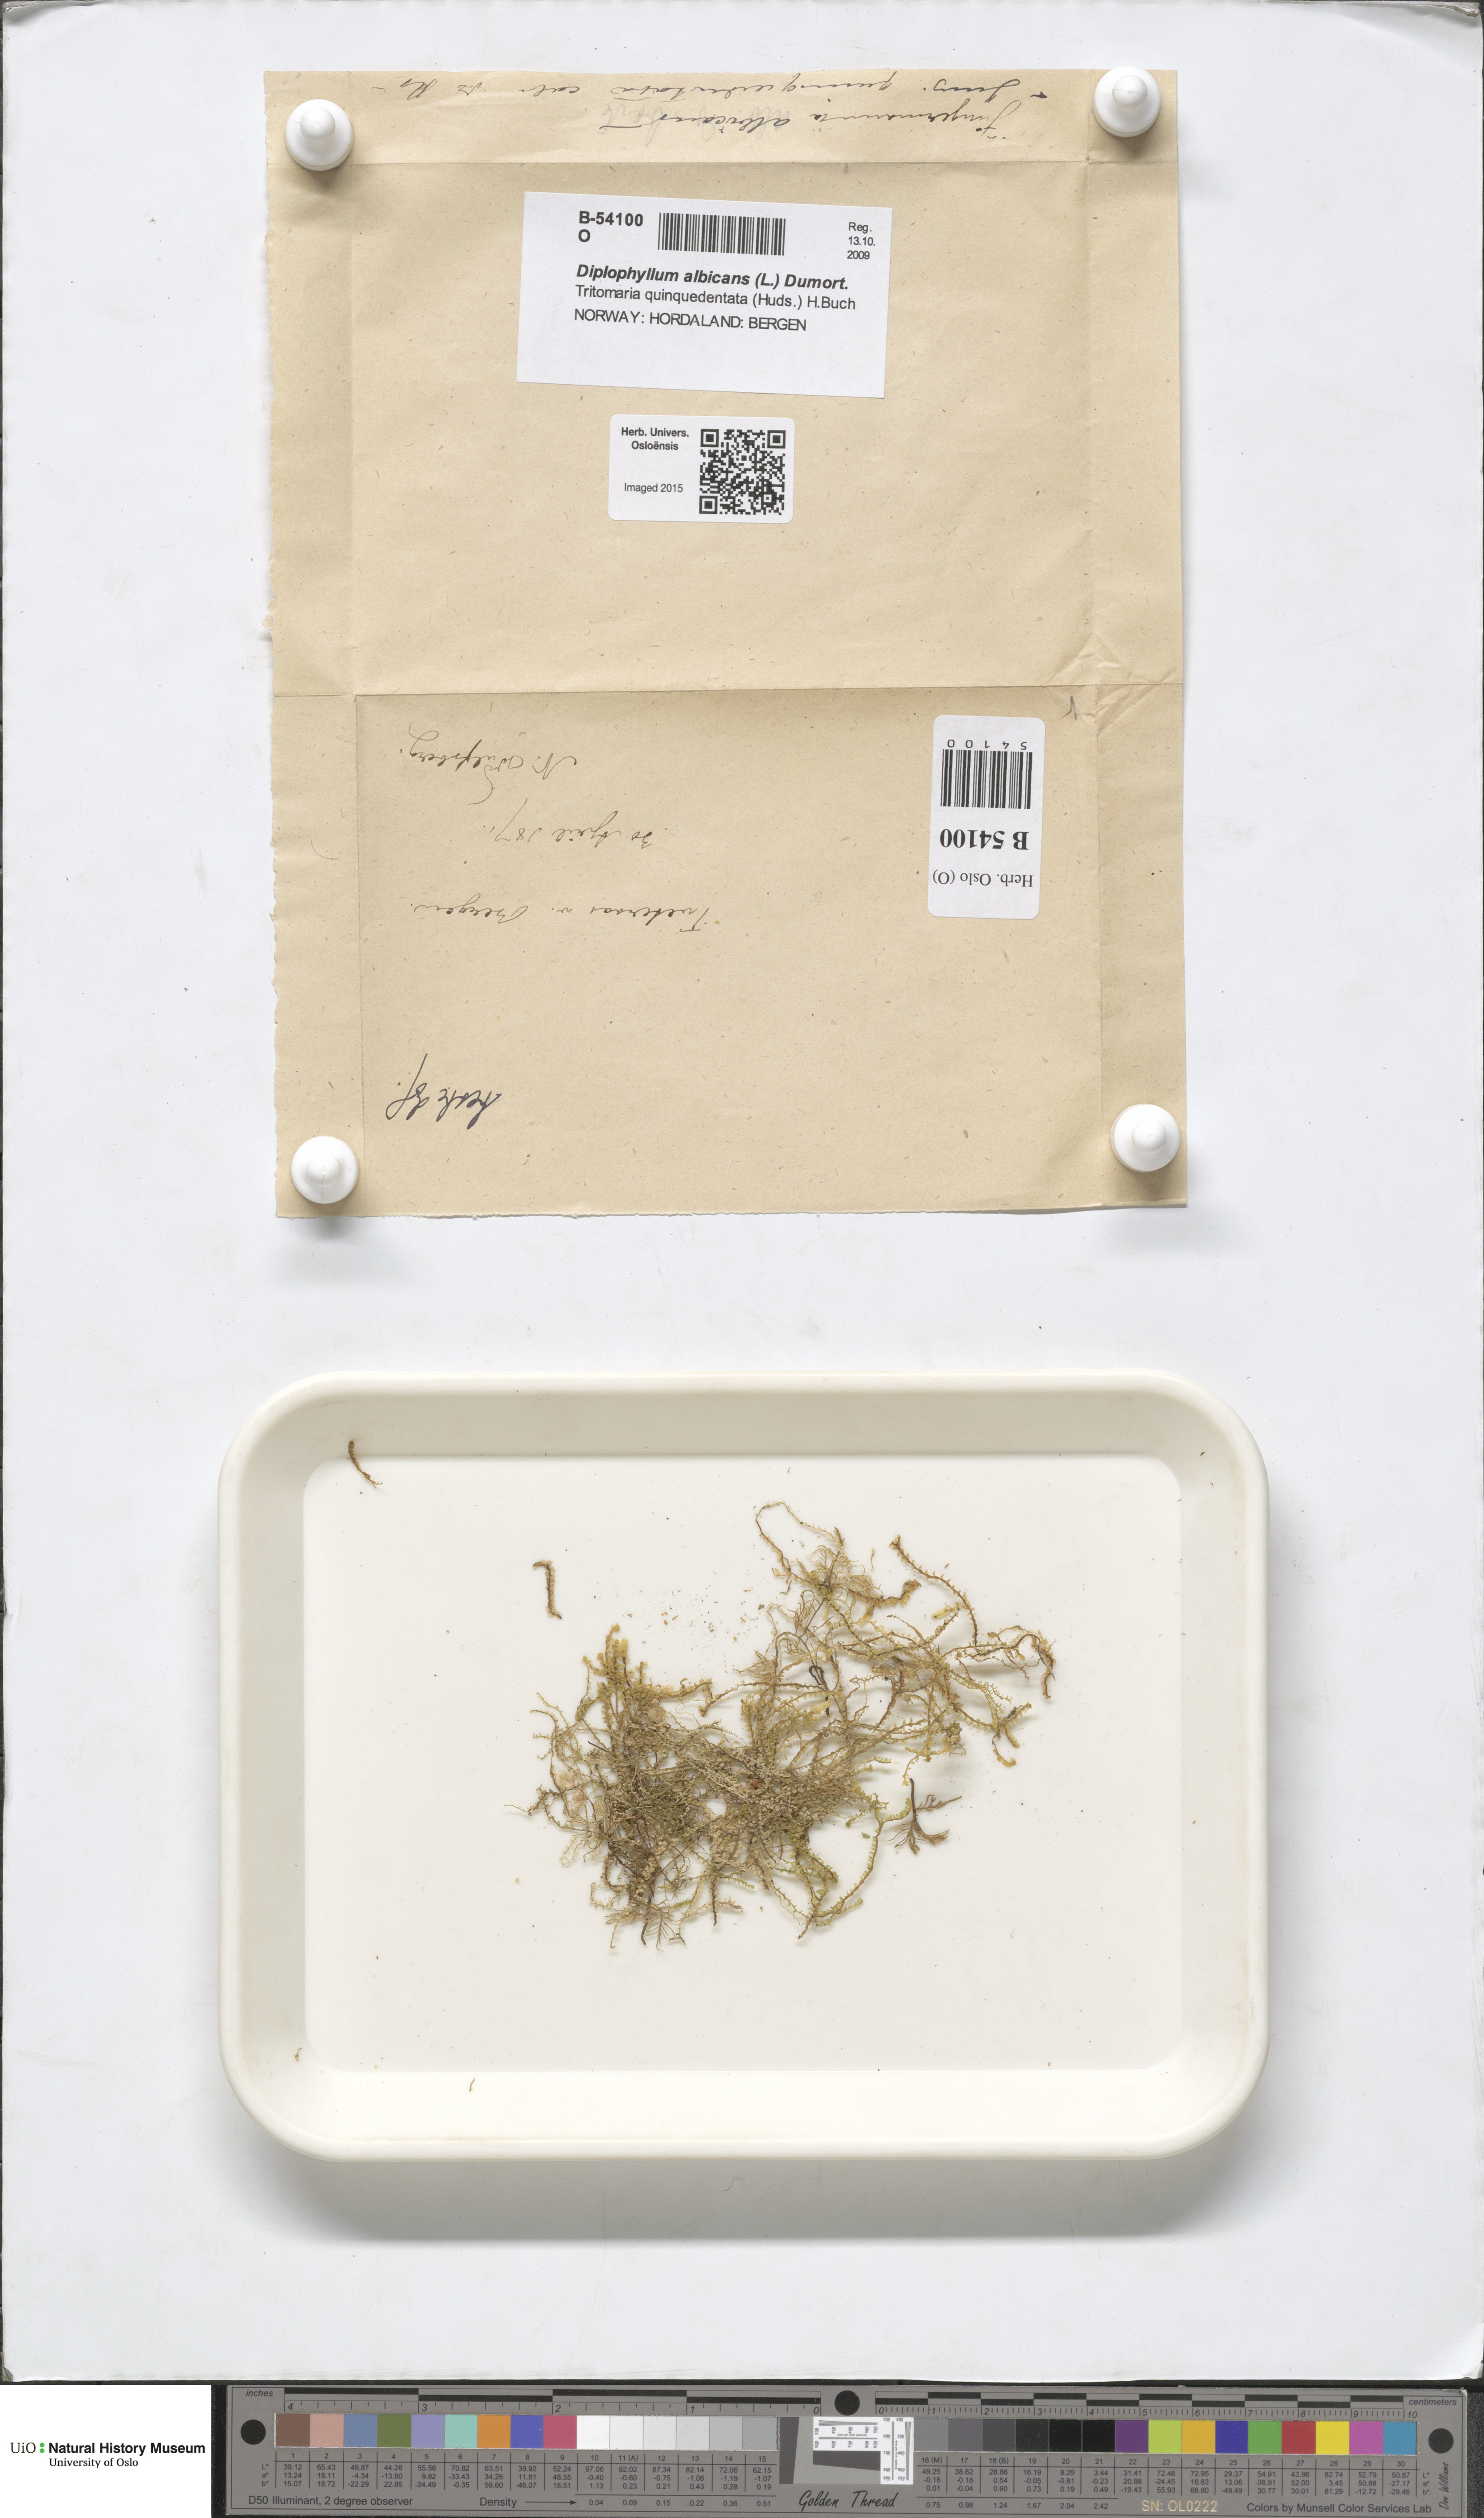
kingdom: Plantae
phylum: Marchantiophyta
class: Jungermanniopsida
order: Jungermanniales
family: Scapaniaceae
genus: Diplophyllum
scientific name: Diplophyllum albicans
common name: White earwort
